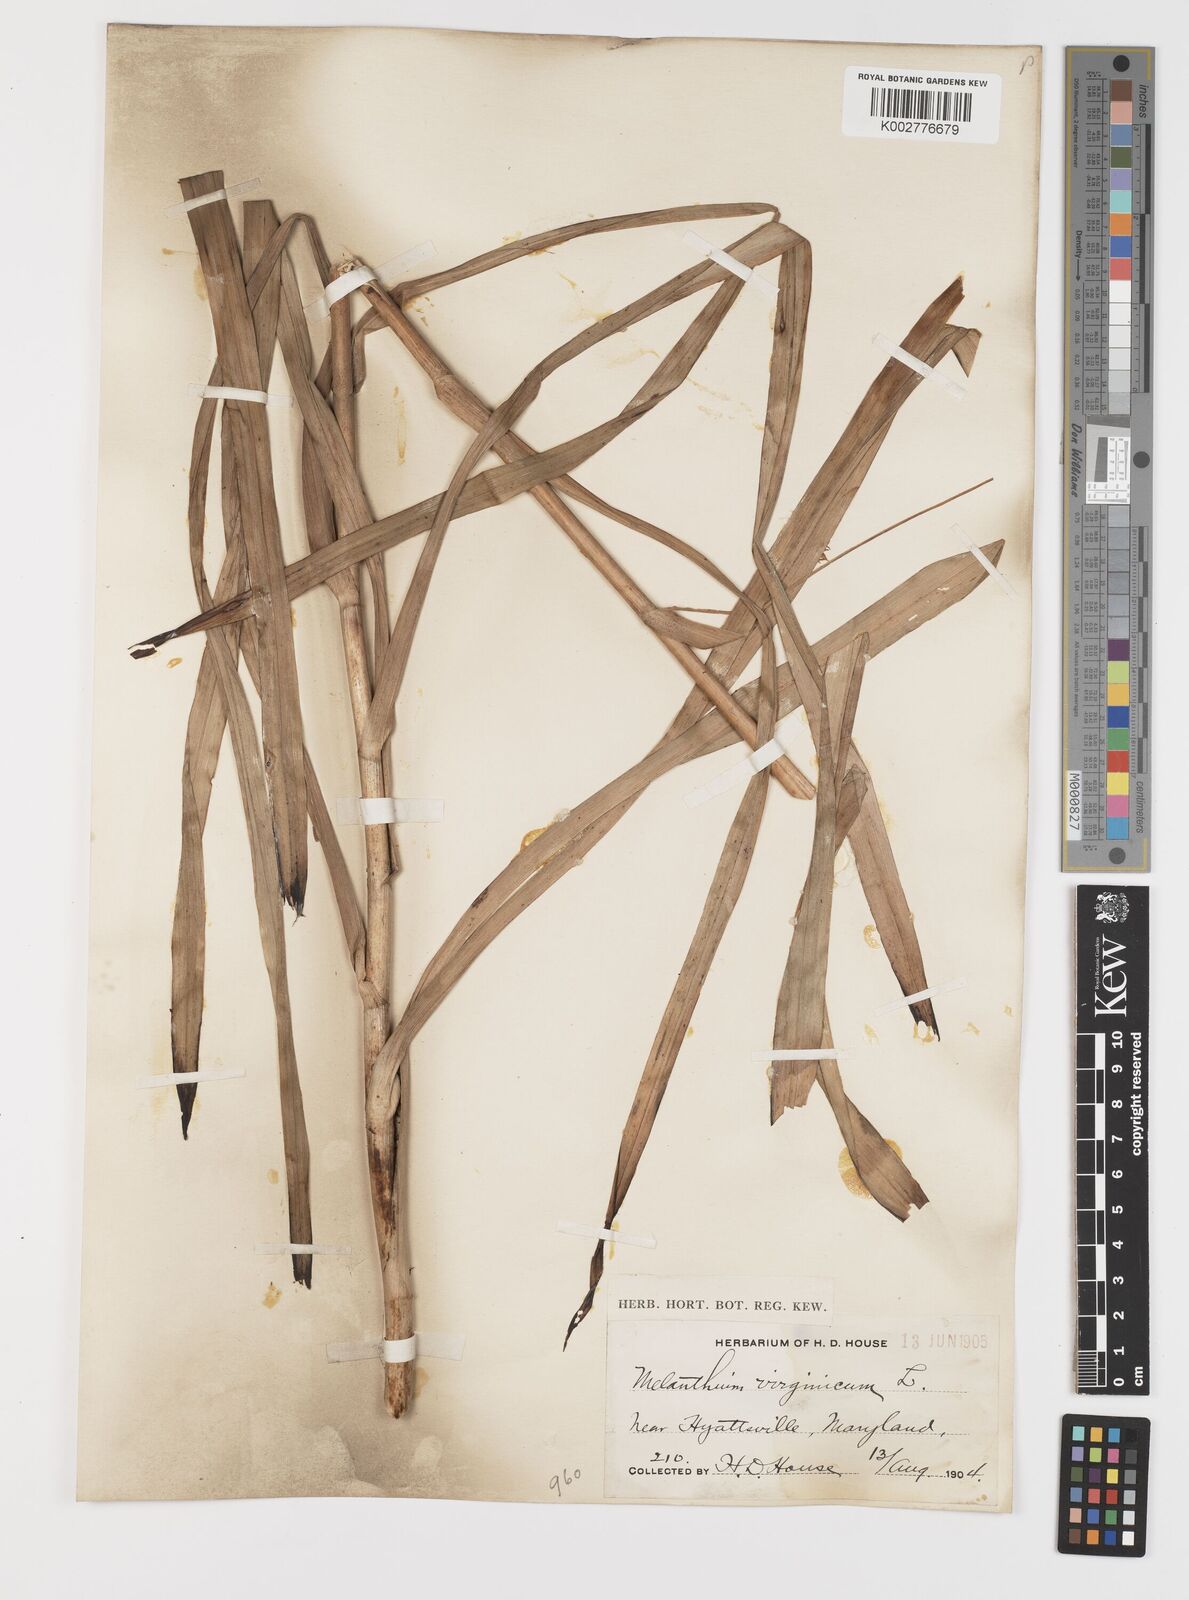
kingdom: Plantae
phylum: Tracheophyta
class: Liliopsida
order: Liliales
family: Melanthiaceae
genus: Melanthium
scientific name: Melanthium virginicum
